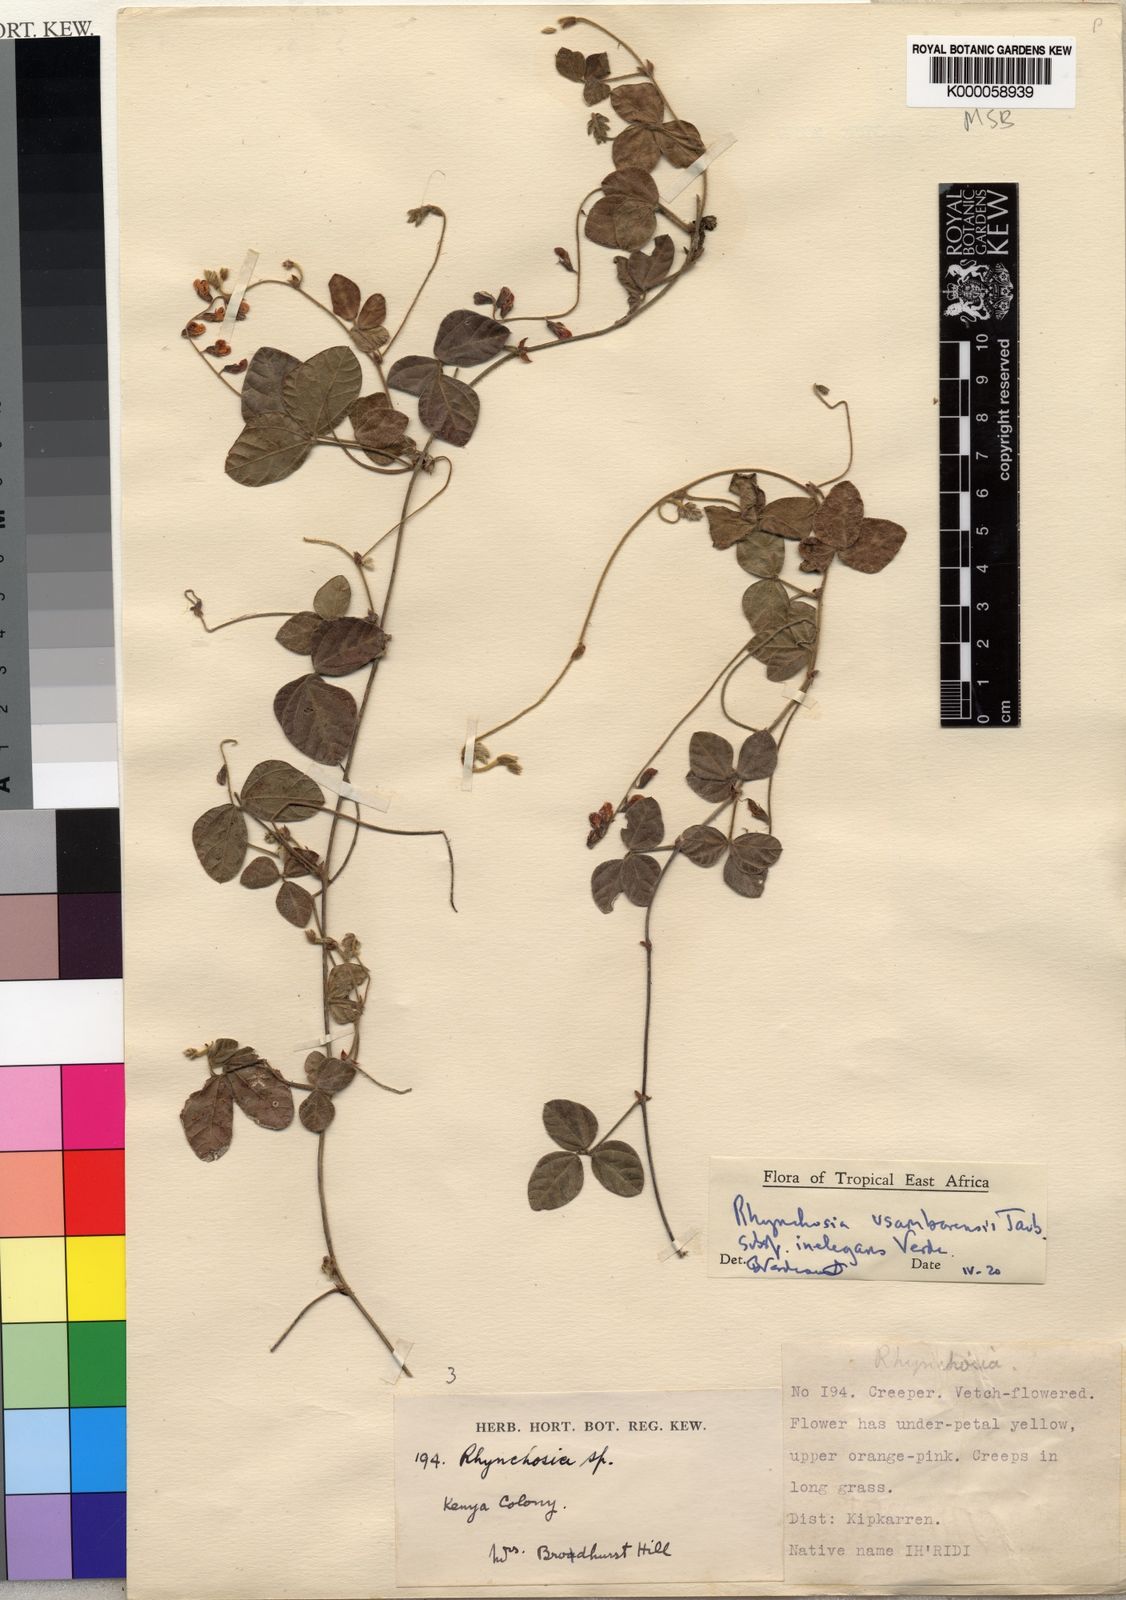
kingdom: Plantae
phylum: Tracheophyta
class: Magnoliopsida
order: Fabales
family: Fabaceae
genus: Rhynchosia
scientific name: Rhynchosia usambarensis
